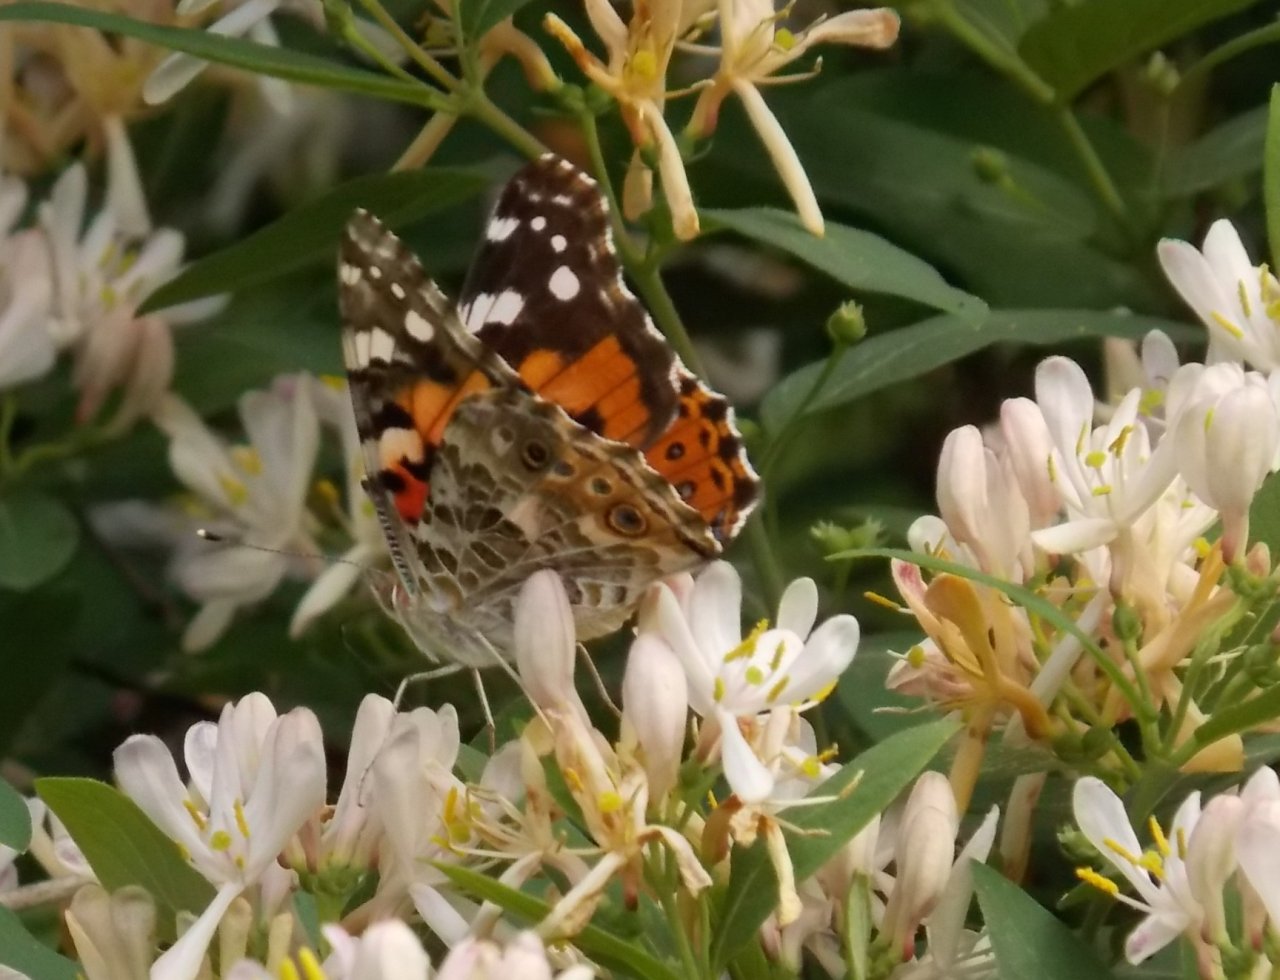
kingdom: Animalia
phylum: Arthropoda
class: Insecta
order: Lepidoptera
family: Nymphalidae
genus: Vanessa
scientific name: Vanessa cardui
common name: Painted Lady
